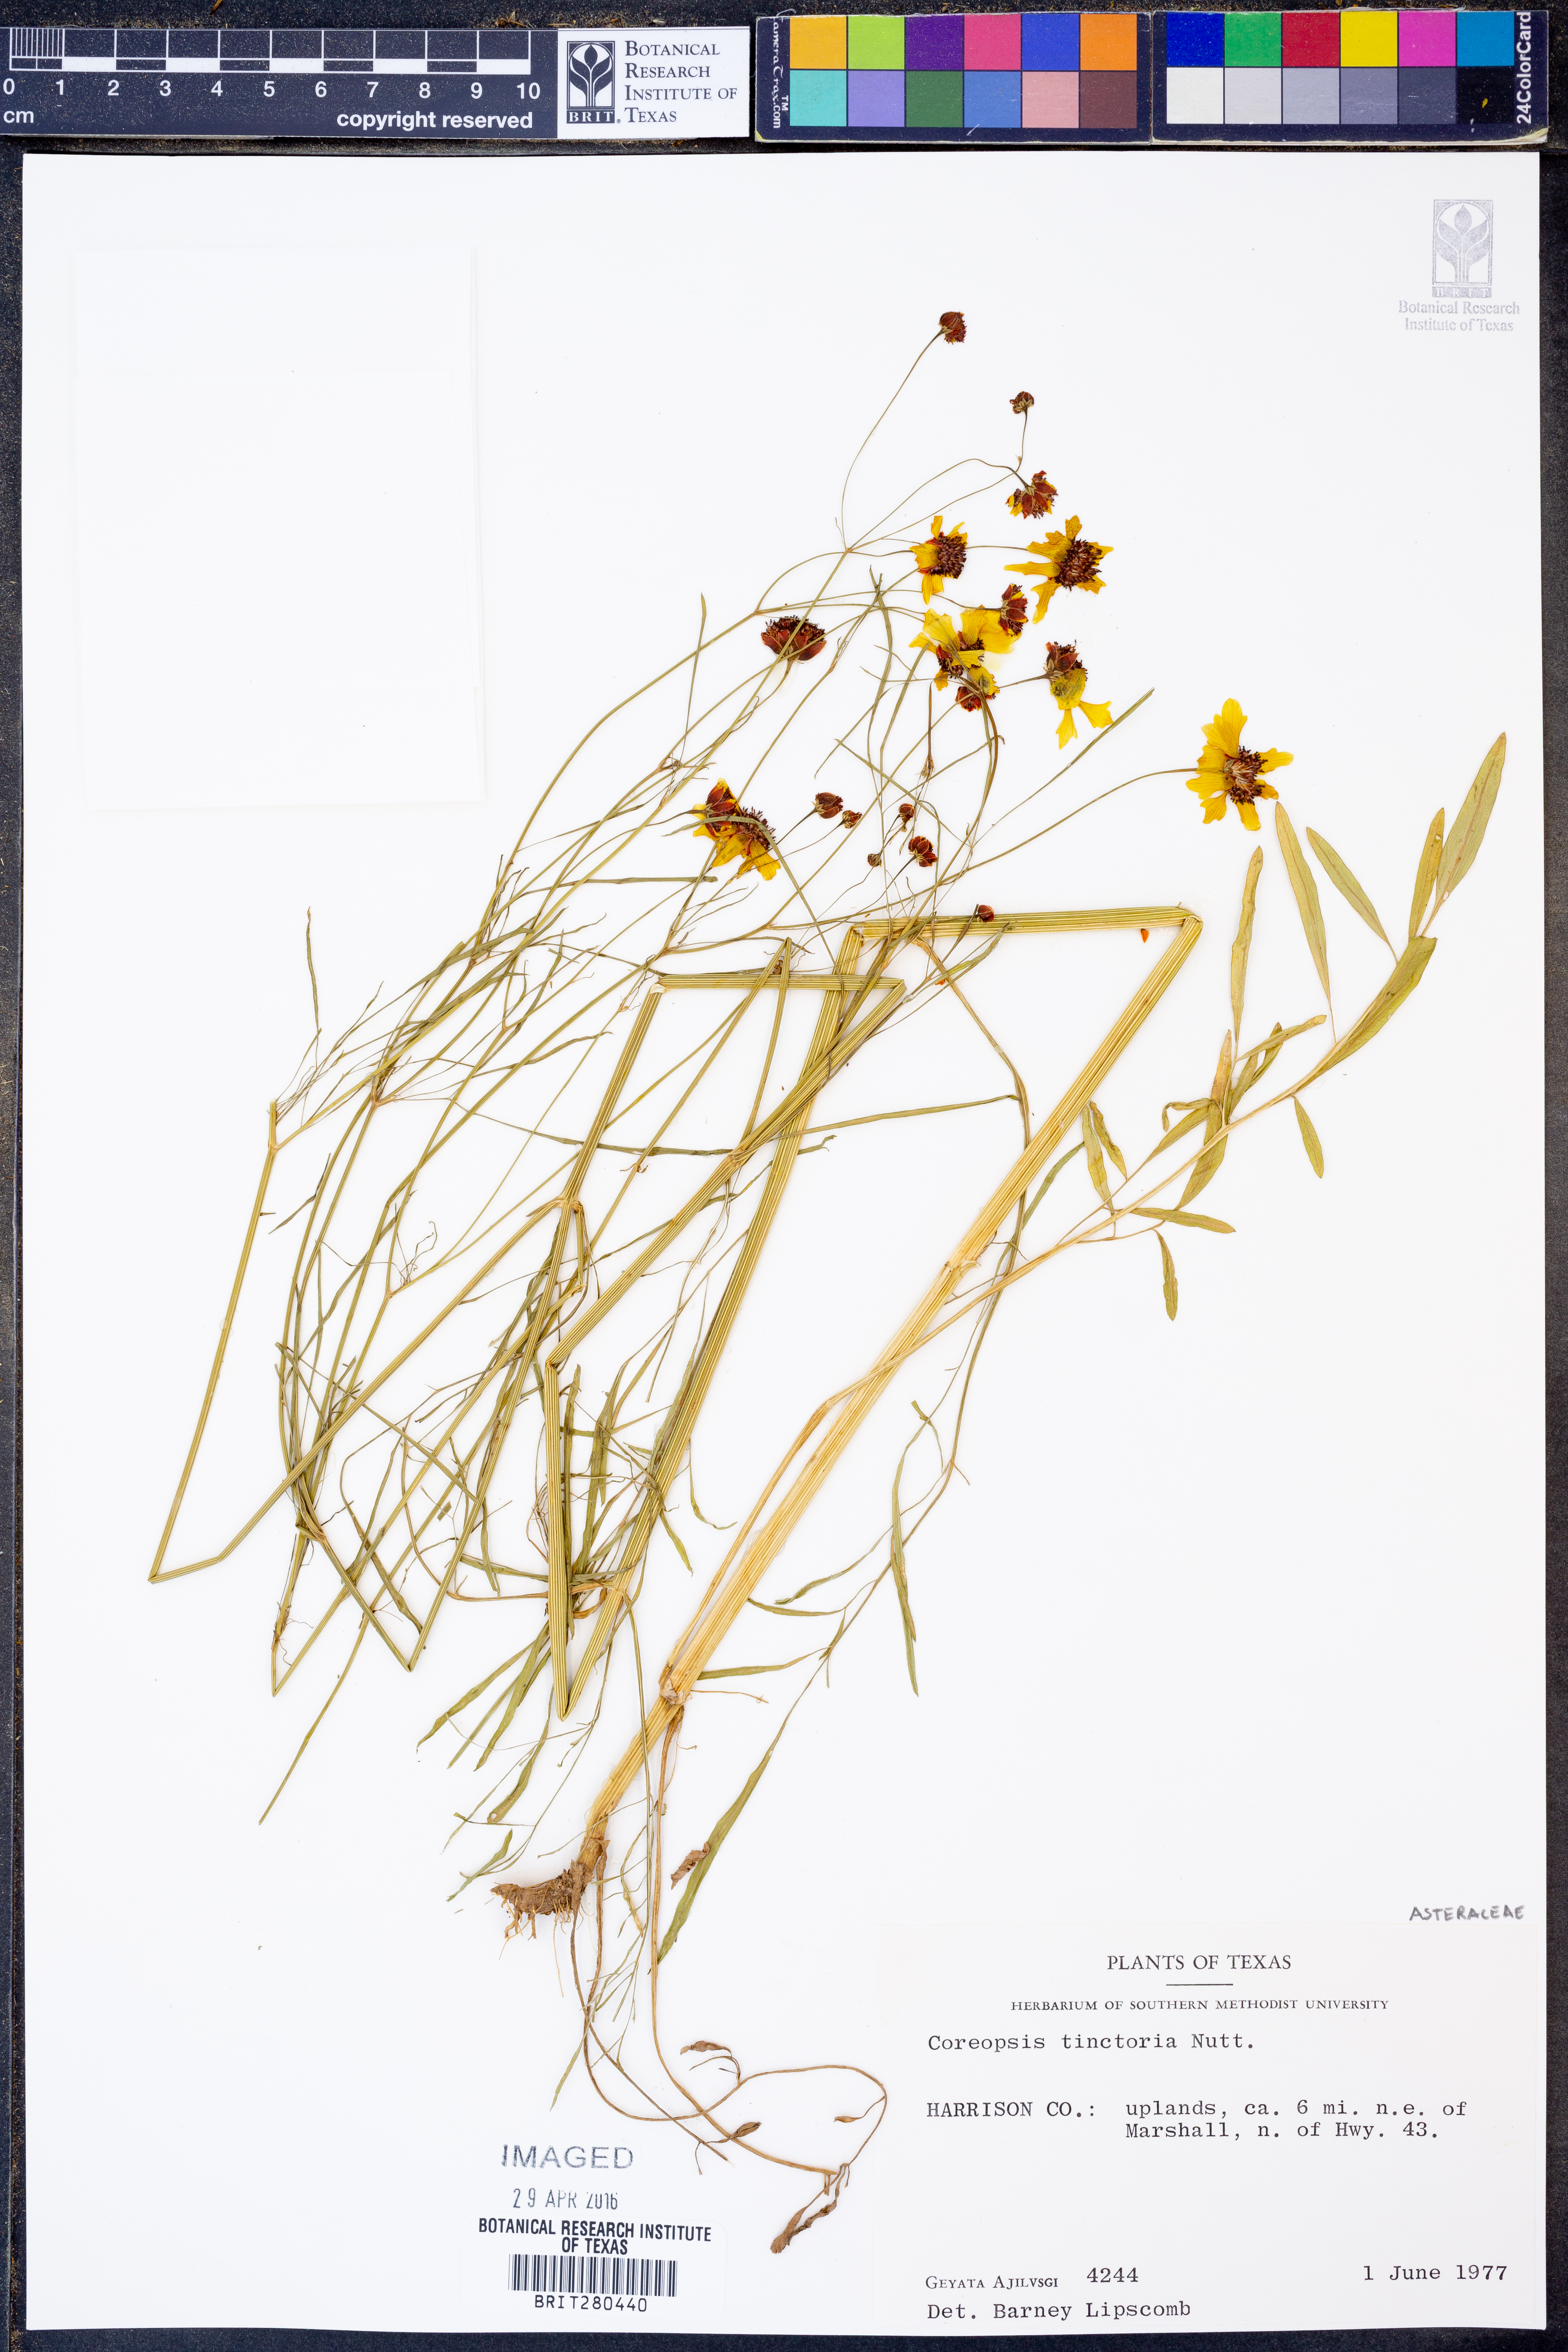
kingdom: Plantae
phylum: Tracheophyta
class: Magnoliopsida
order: Asterales
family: Asteraceae
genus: Coreopsis
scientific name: Coreopsis tinctoria
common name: Garden tickseed
